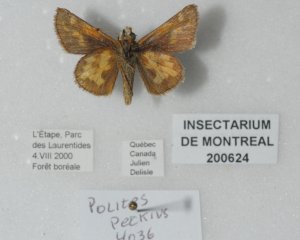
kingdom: Animalia
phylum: Arthropoda
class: Insecta
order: Lepidoptera
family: Hesperiidae
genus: Polites
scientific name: Polites coras
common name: Peck's Skipper
